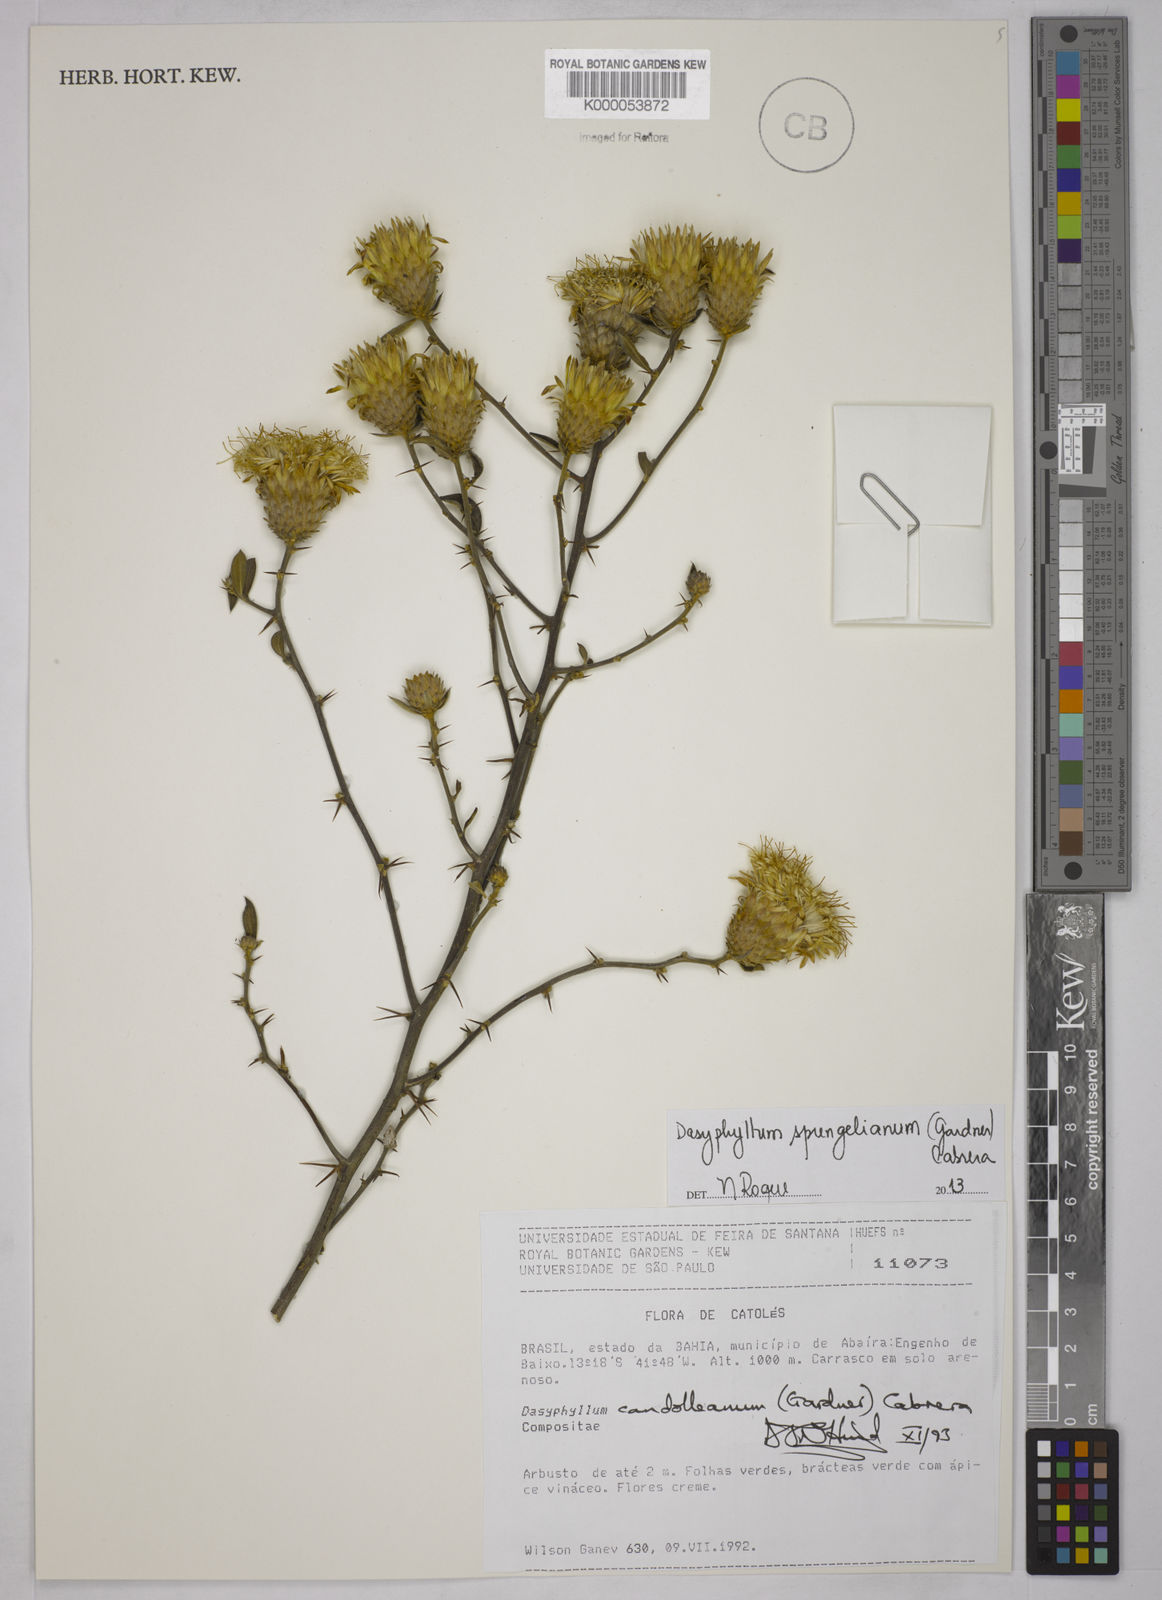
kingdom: Plantae
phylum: Tracheophyta
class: Magnoliopsida
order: Asterales
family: Asteraceae
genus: Dasyphyllum
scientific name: Dasyphyllum candolleanum
